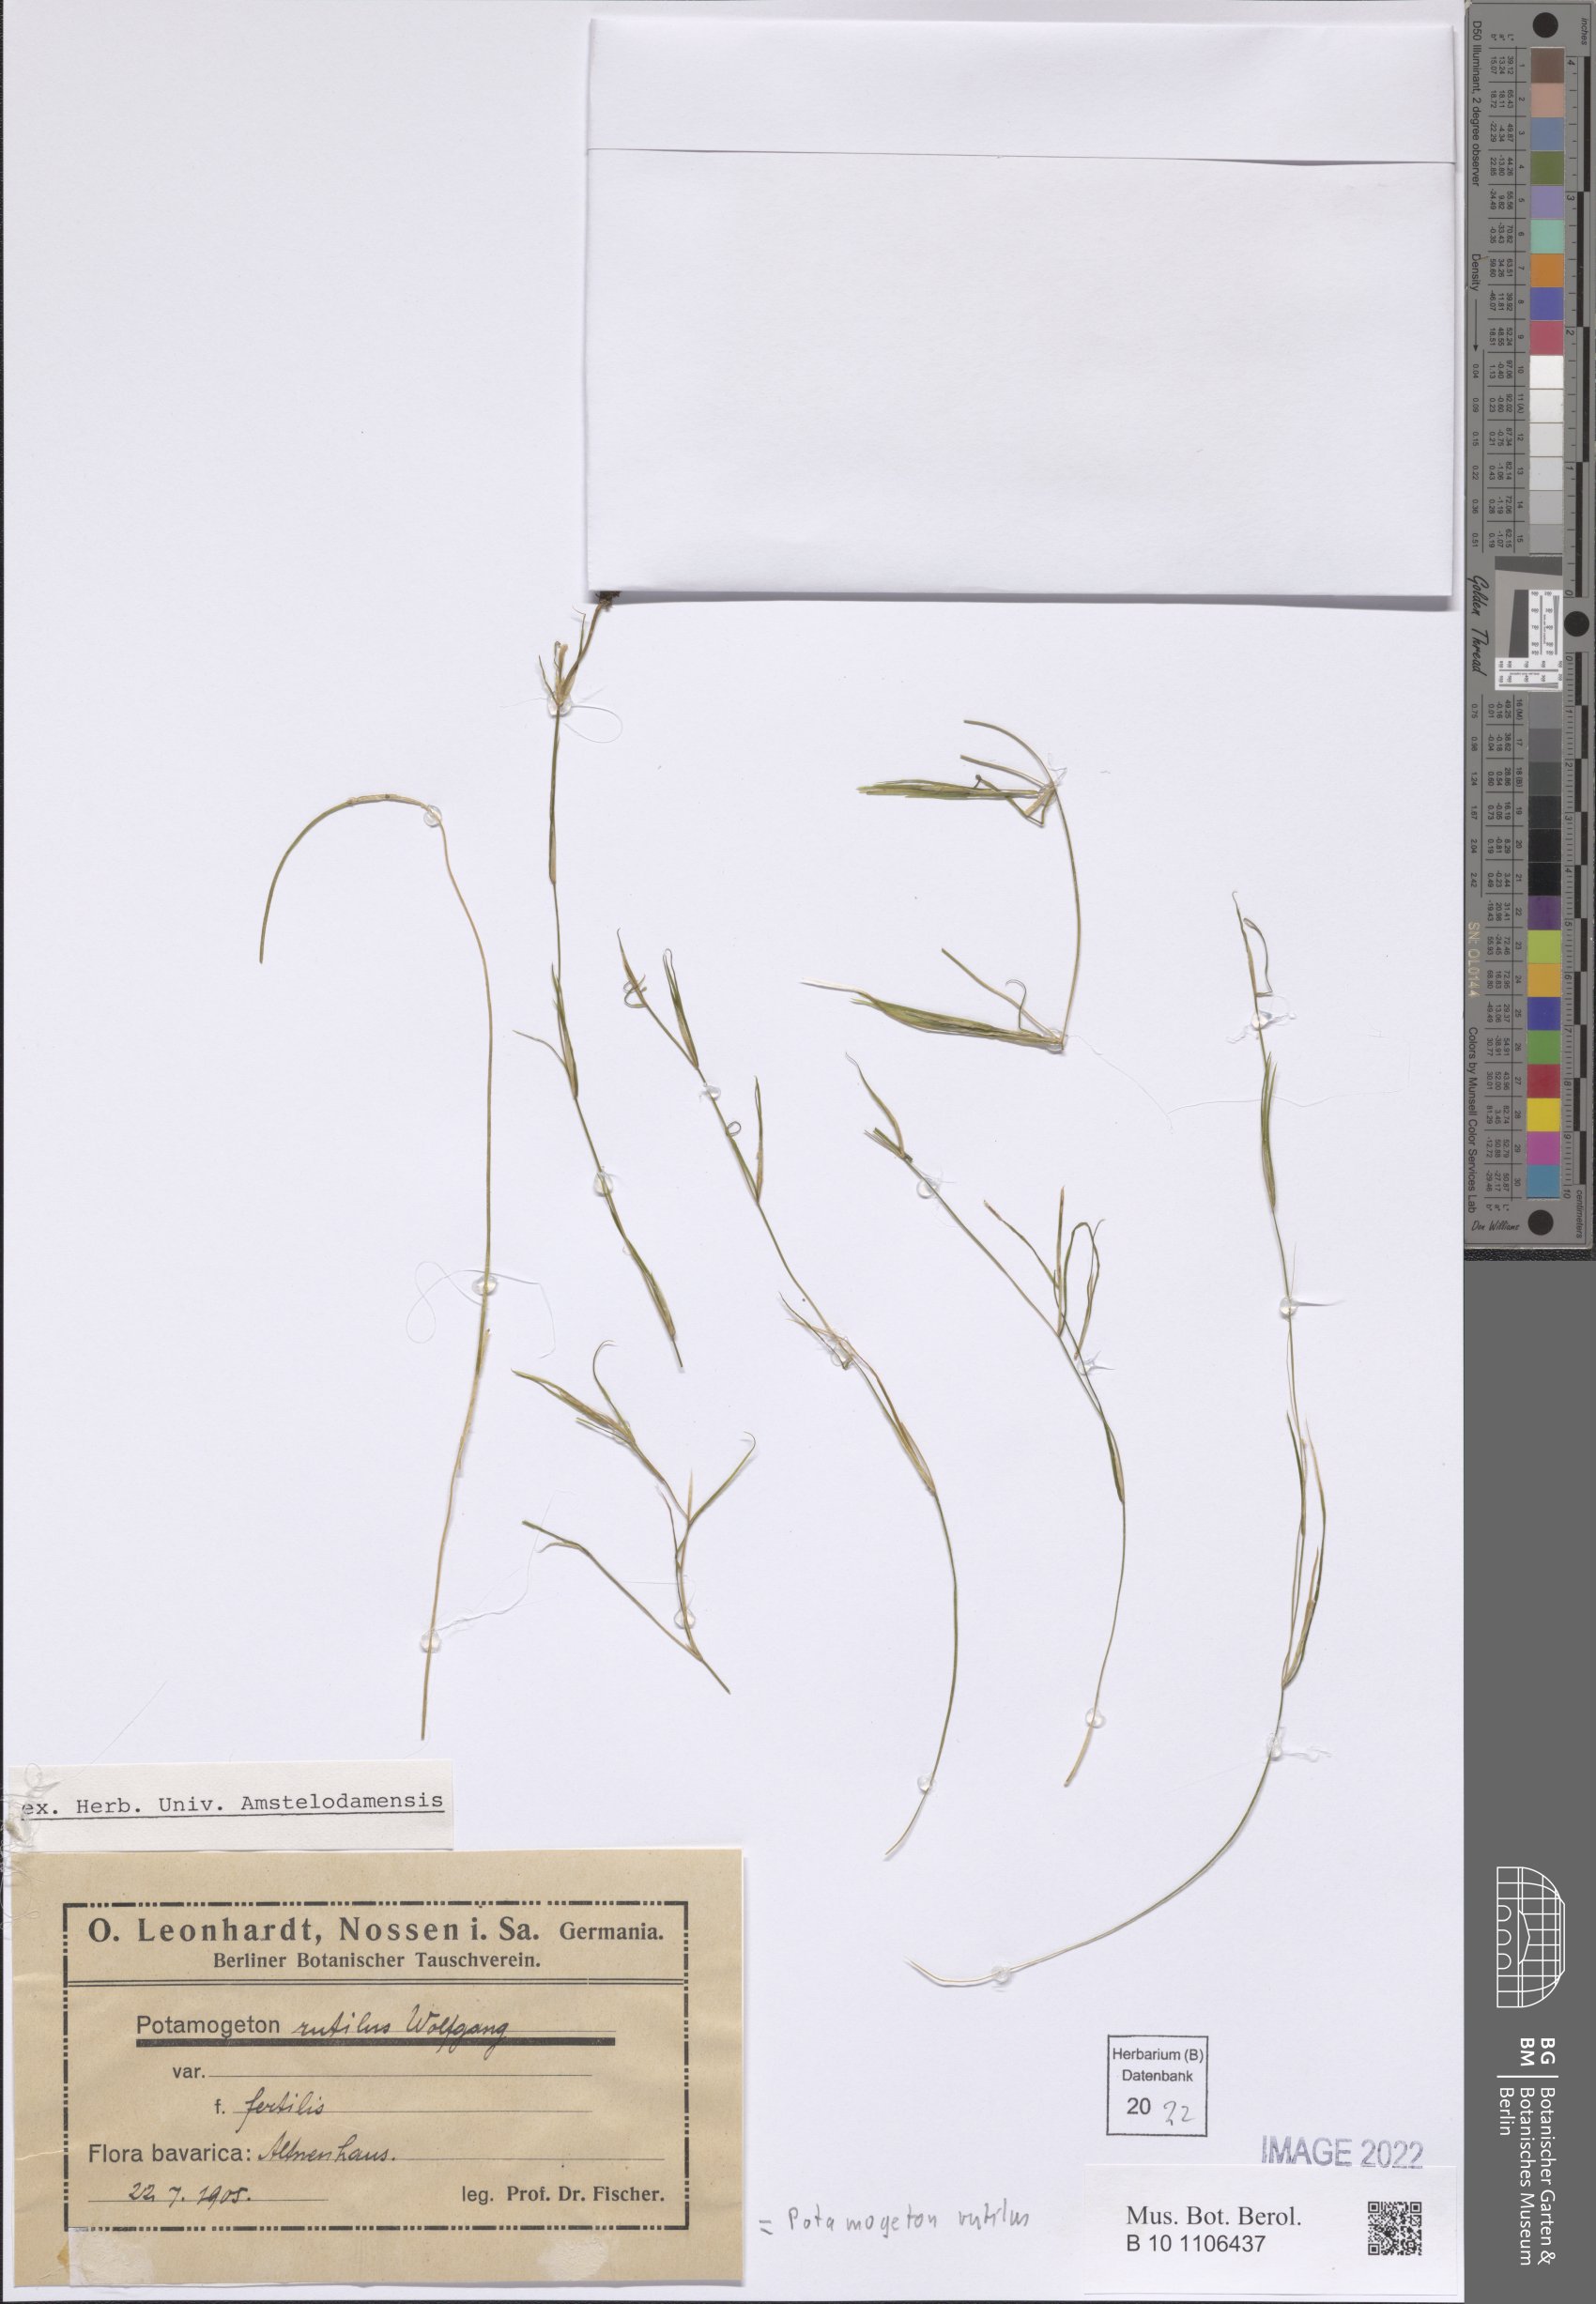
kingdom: Plantae
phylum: Tracheophyta
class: Liliopsida
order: Alismatales
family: Potamogetonaceae
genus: Potamogeton
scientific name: Potamogeton rutilus
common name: Shetland pondweed
